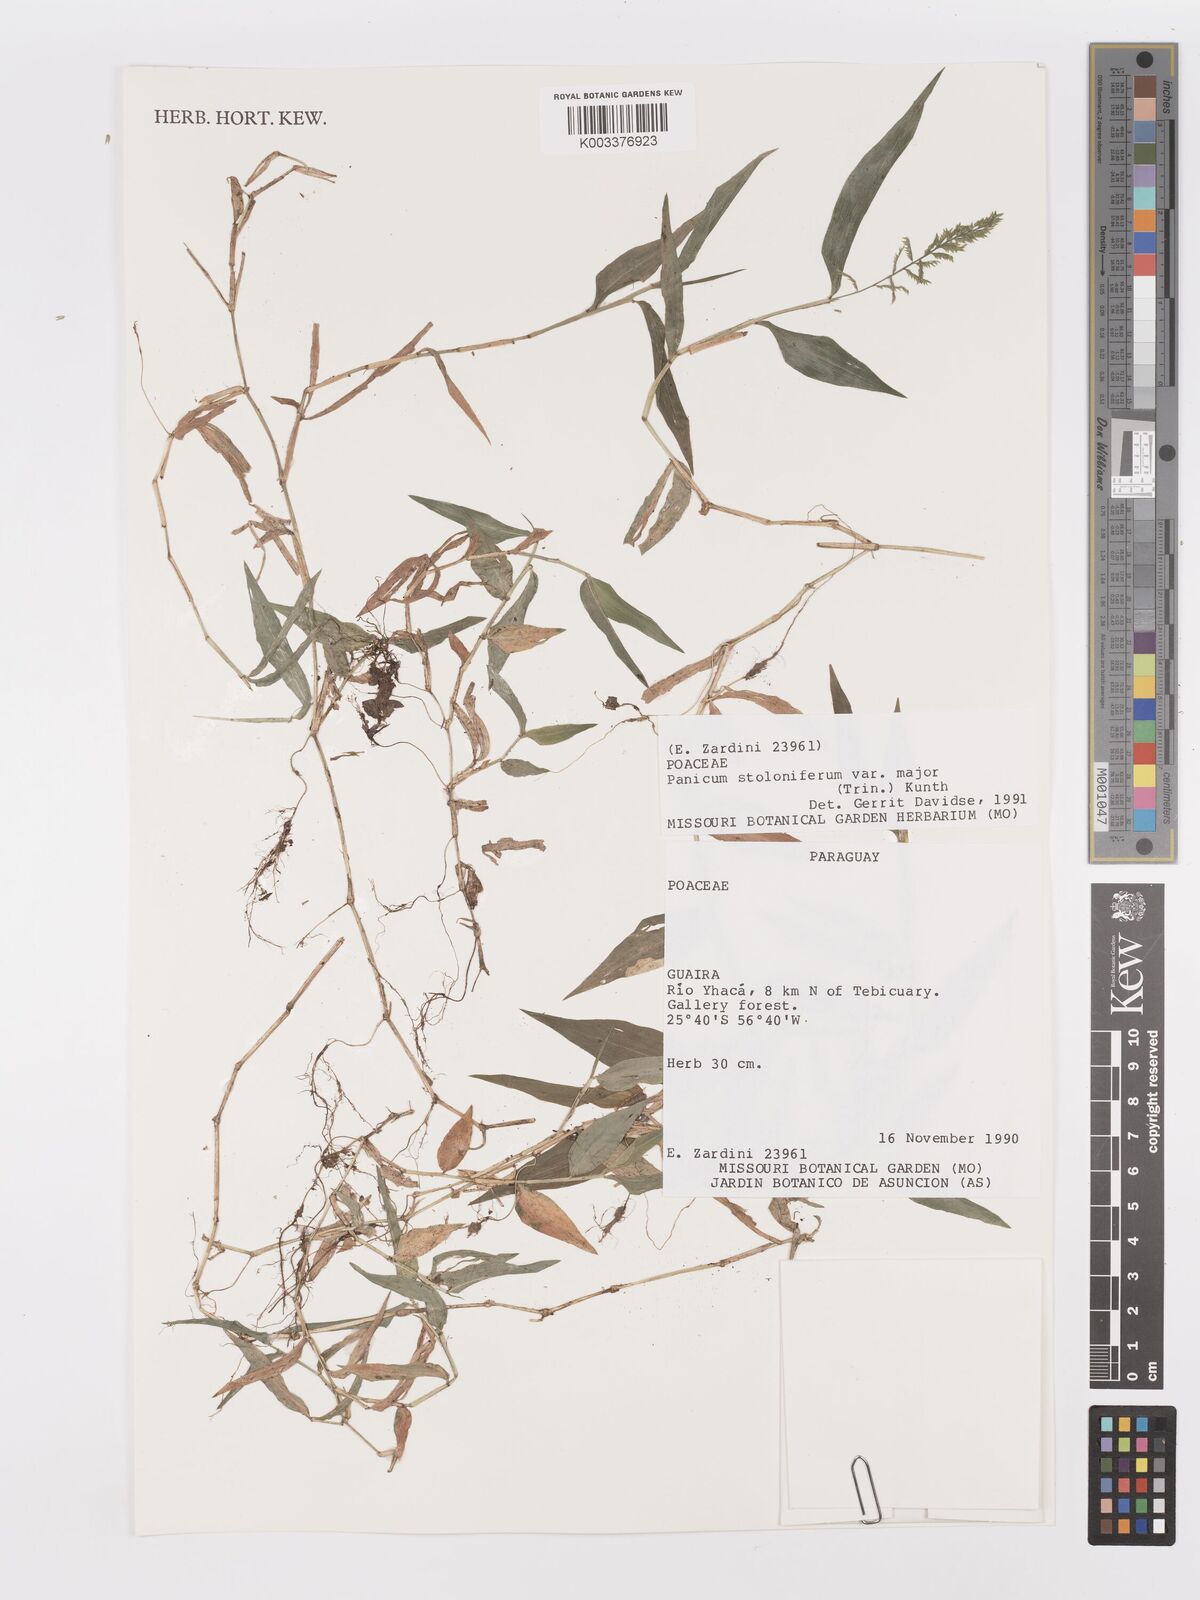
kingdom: Plantae
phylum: Tracheophyta
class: Liliopsida
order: Poales
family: Poaceae
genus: Ocellochloa
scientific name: Ocellochloa stolonifera
